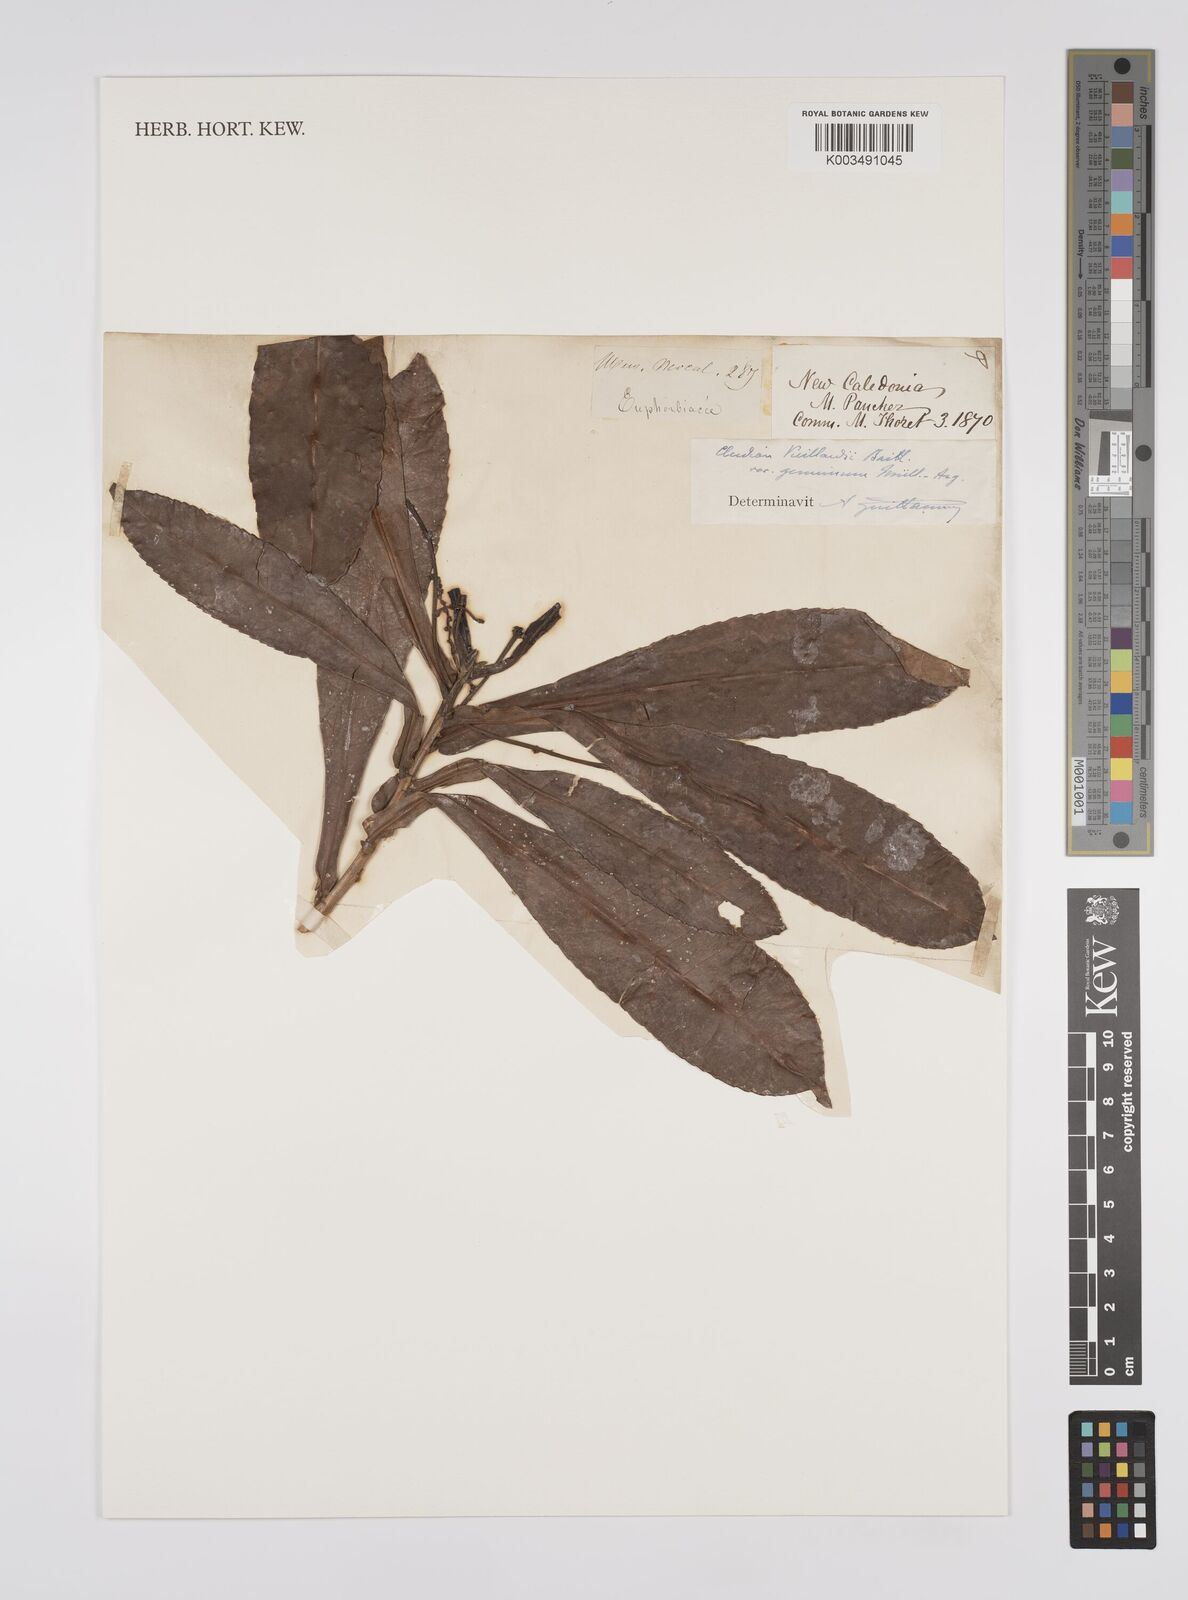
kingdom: Plantae
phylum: Tracheophyta
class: Magnoliopsida
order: Malpighiales
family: Euphorbiaceae
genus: Cleidion
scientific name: Cleidion vieillardii
